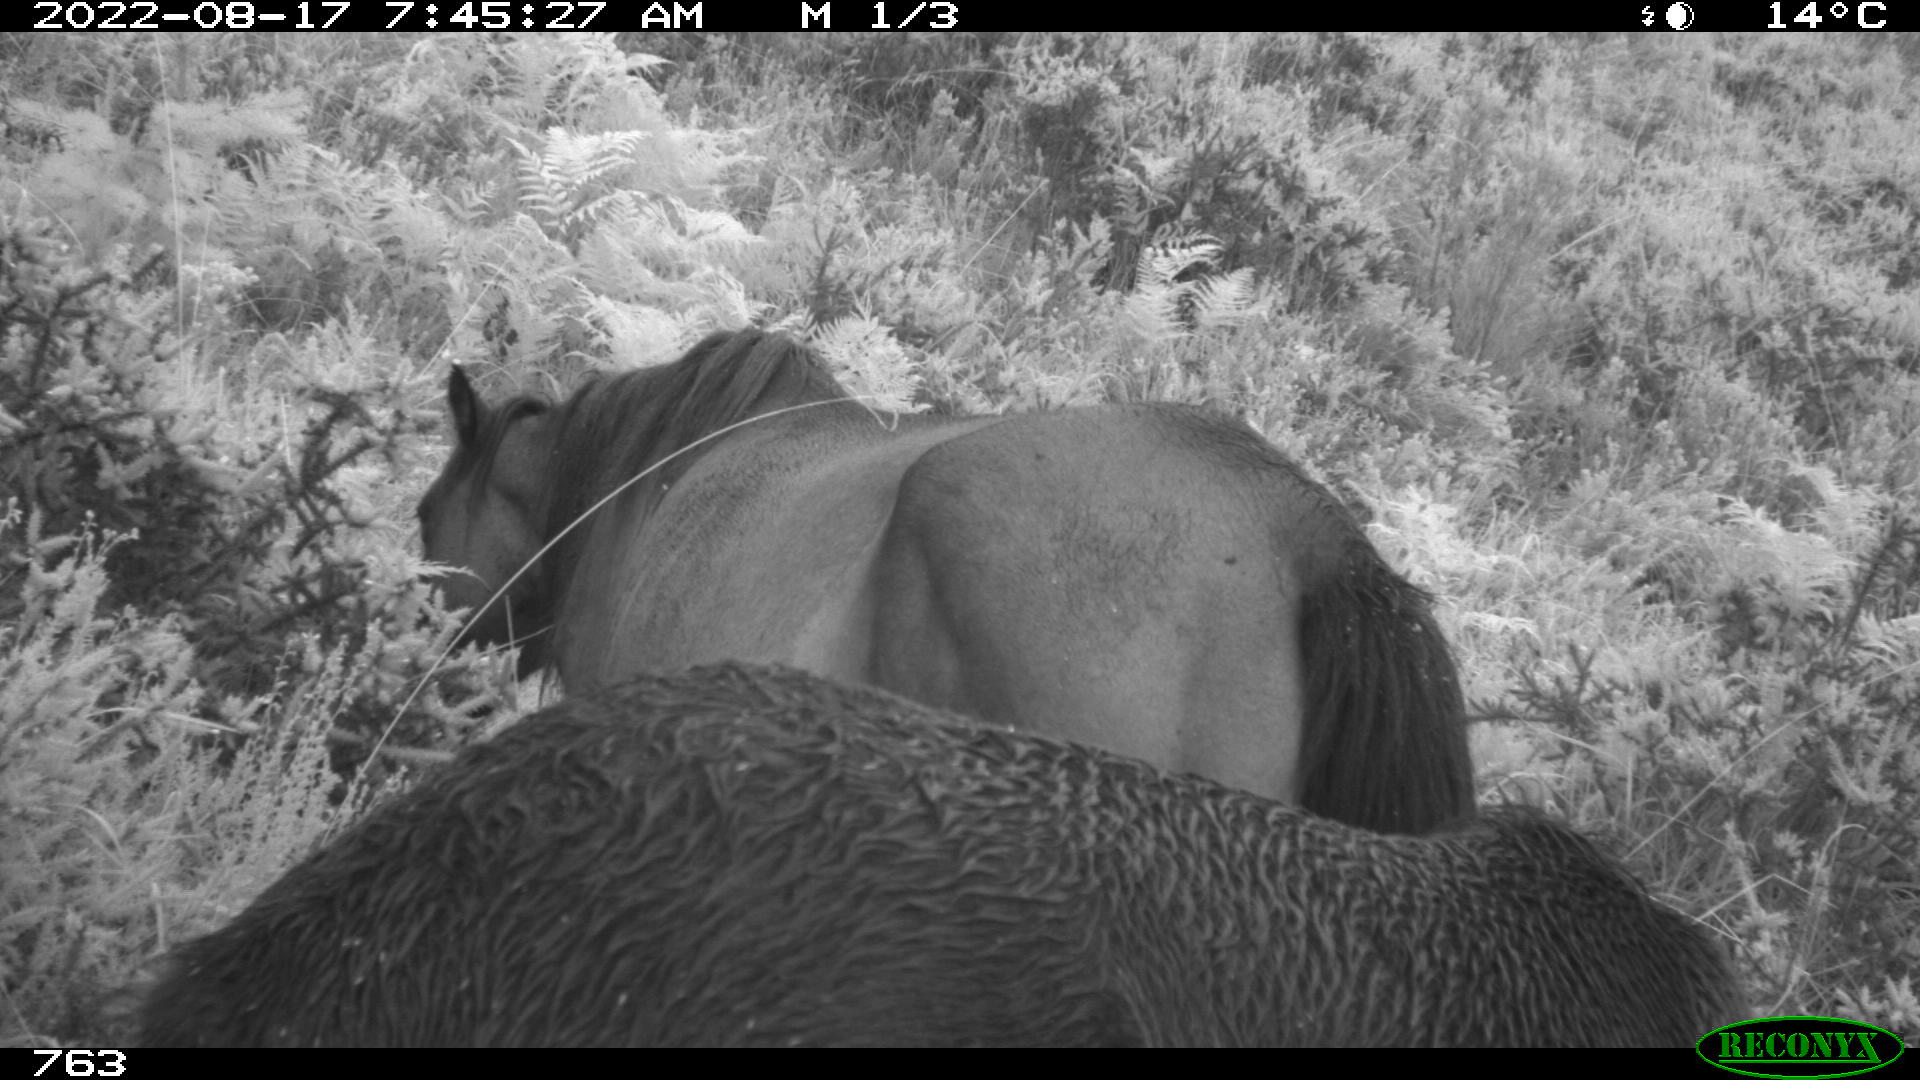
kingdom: Animalia
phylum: Chordata
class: Mammalia
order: Perissodactyla
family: Equidae
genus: Equus
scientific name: Equus caballus
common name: Horse
